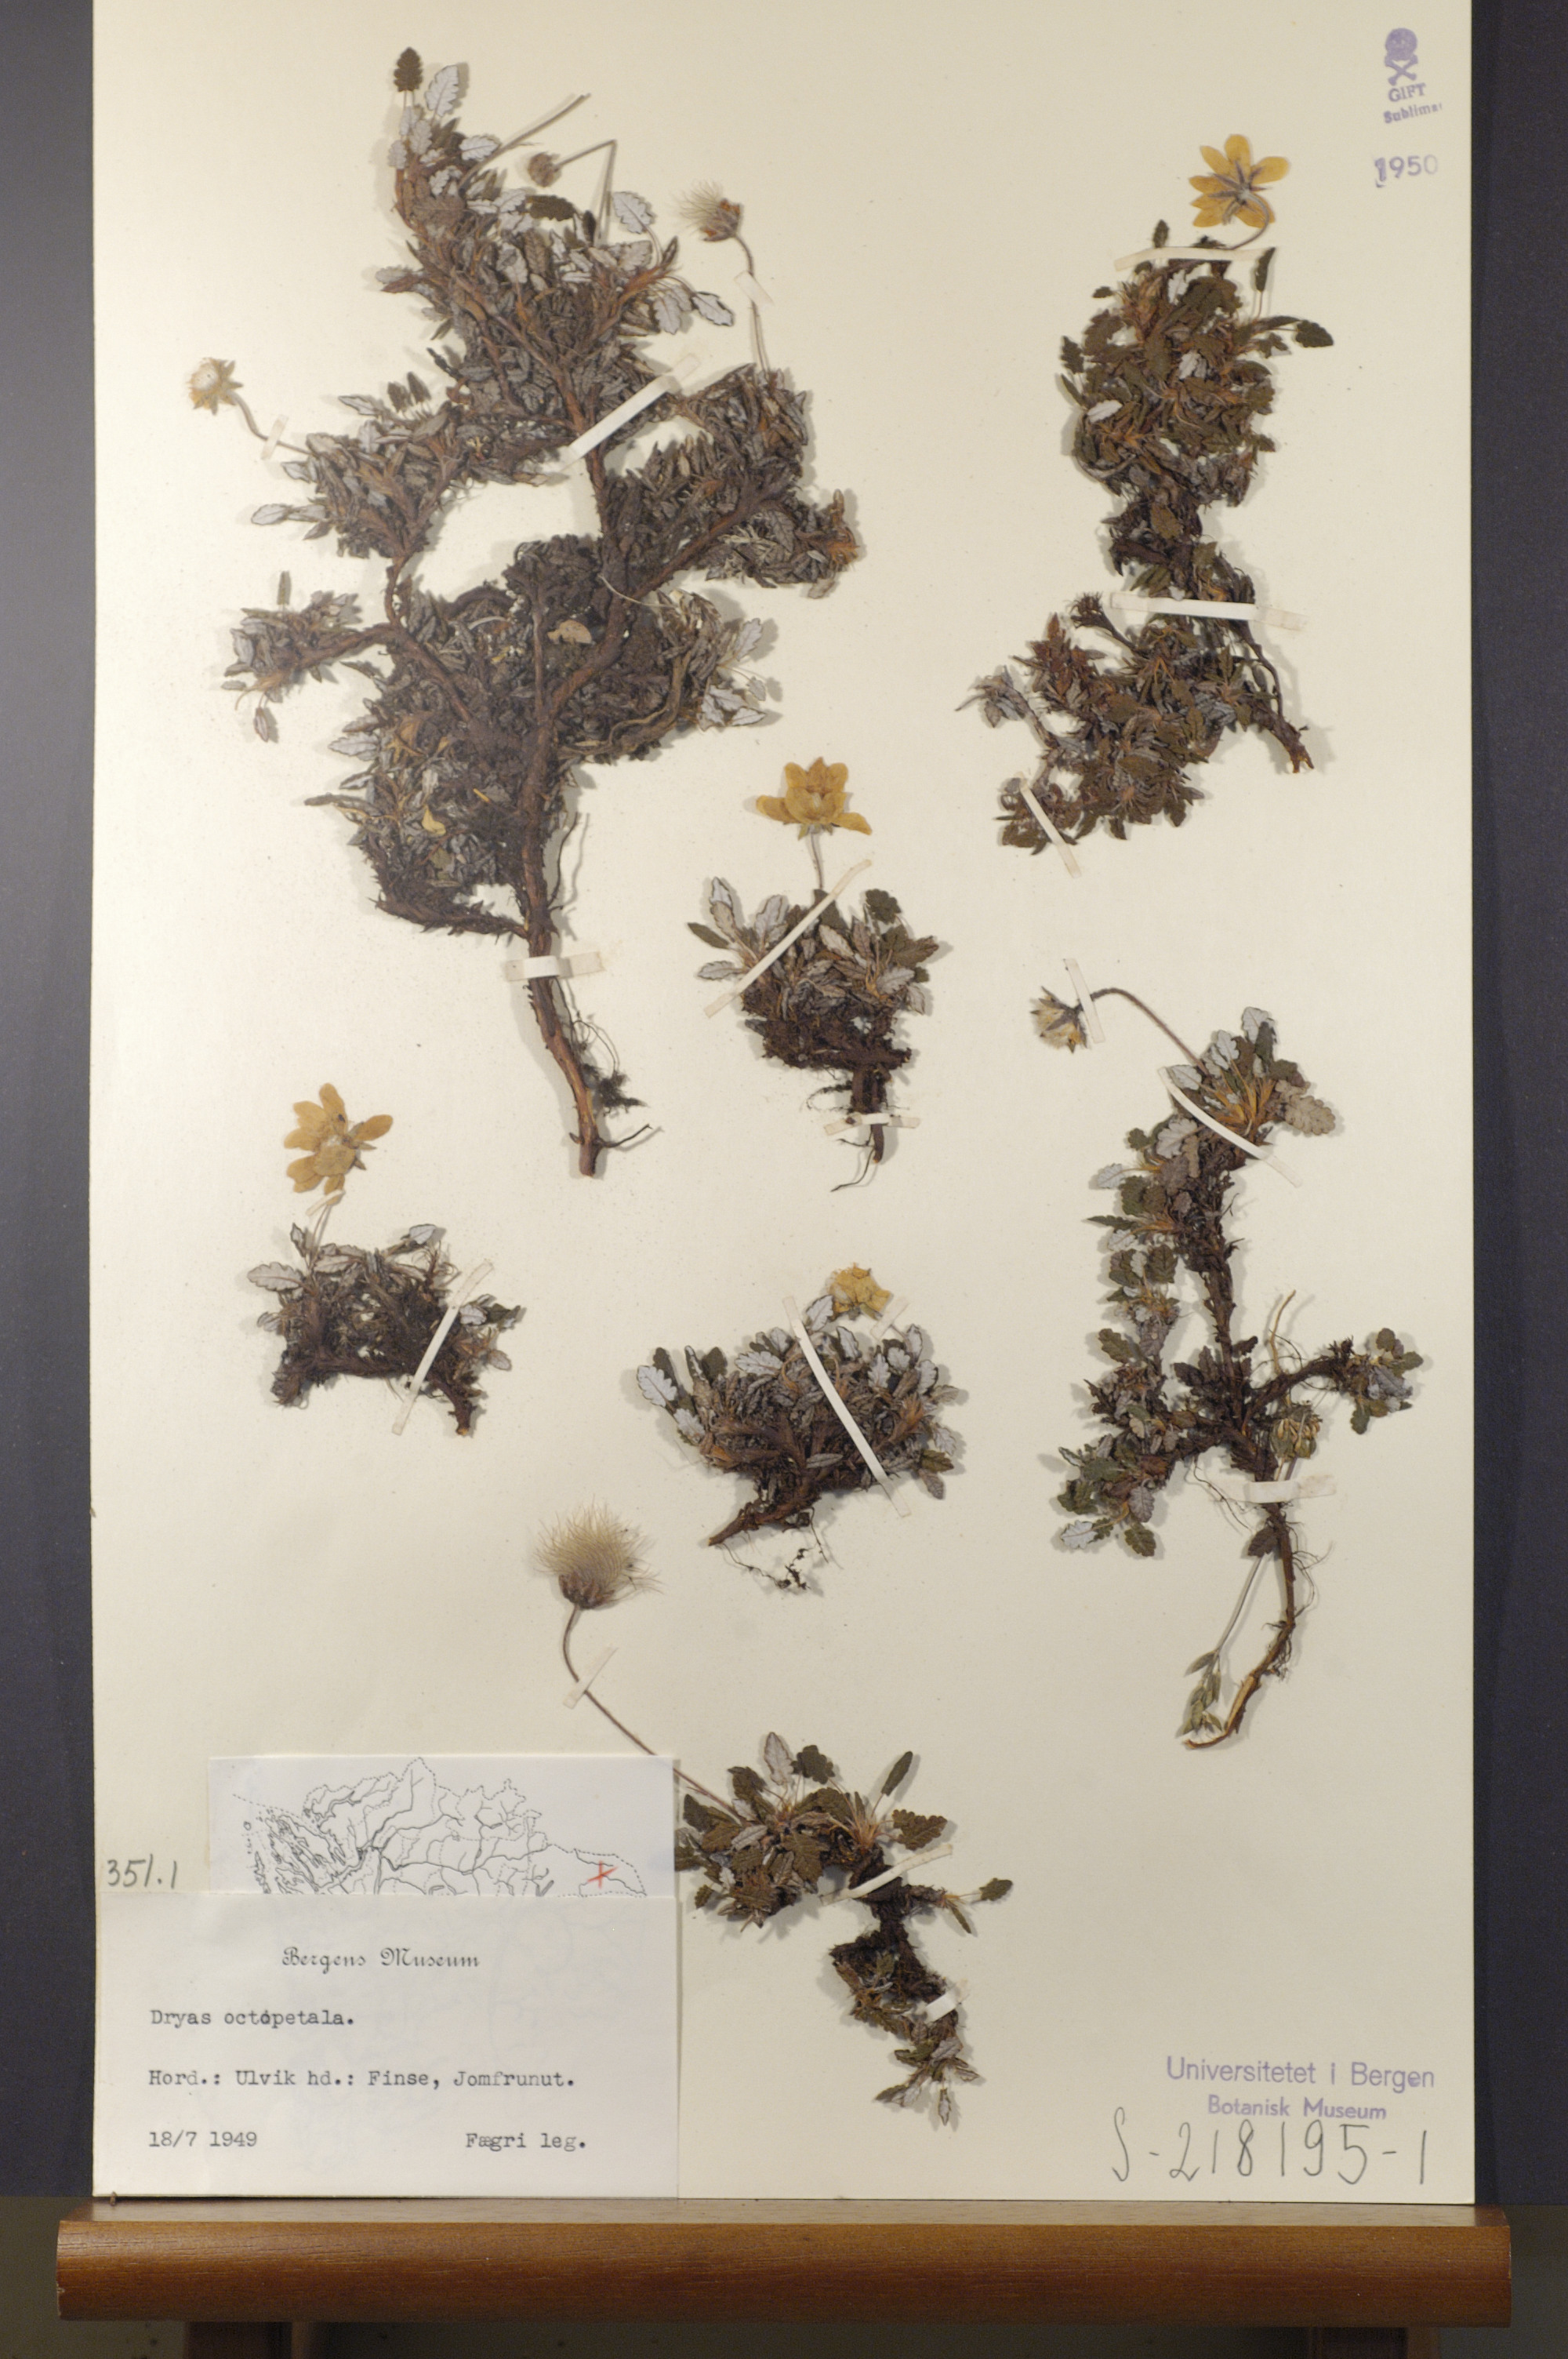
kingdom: Plantae
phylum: Tracheophyta
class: Magnoliopsida
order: Rosales
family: Rosaceae
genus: Dryas
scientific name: Dryas octopetala
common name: Eight-petal mountain-avens
